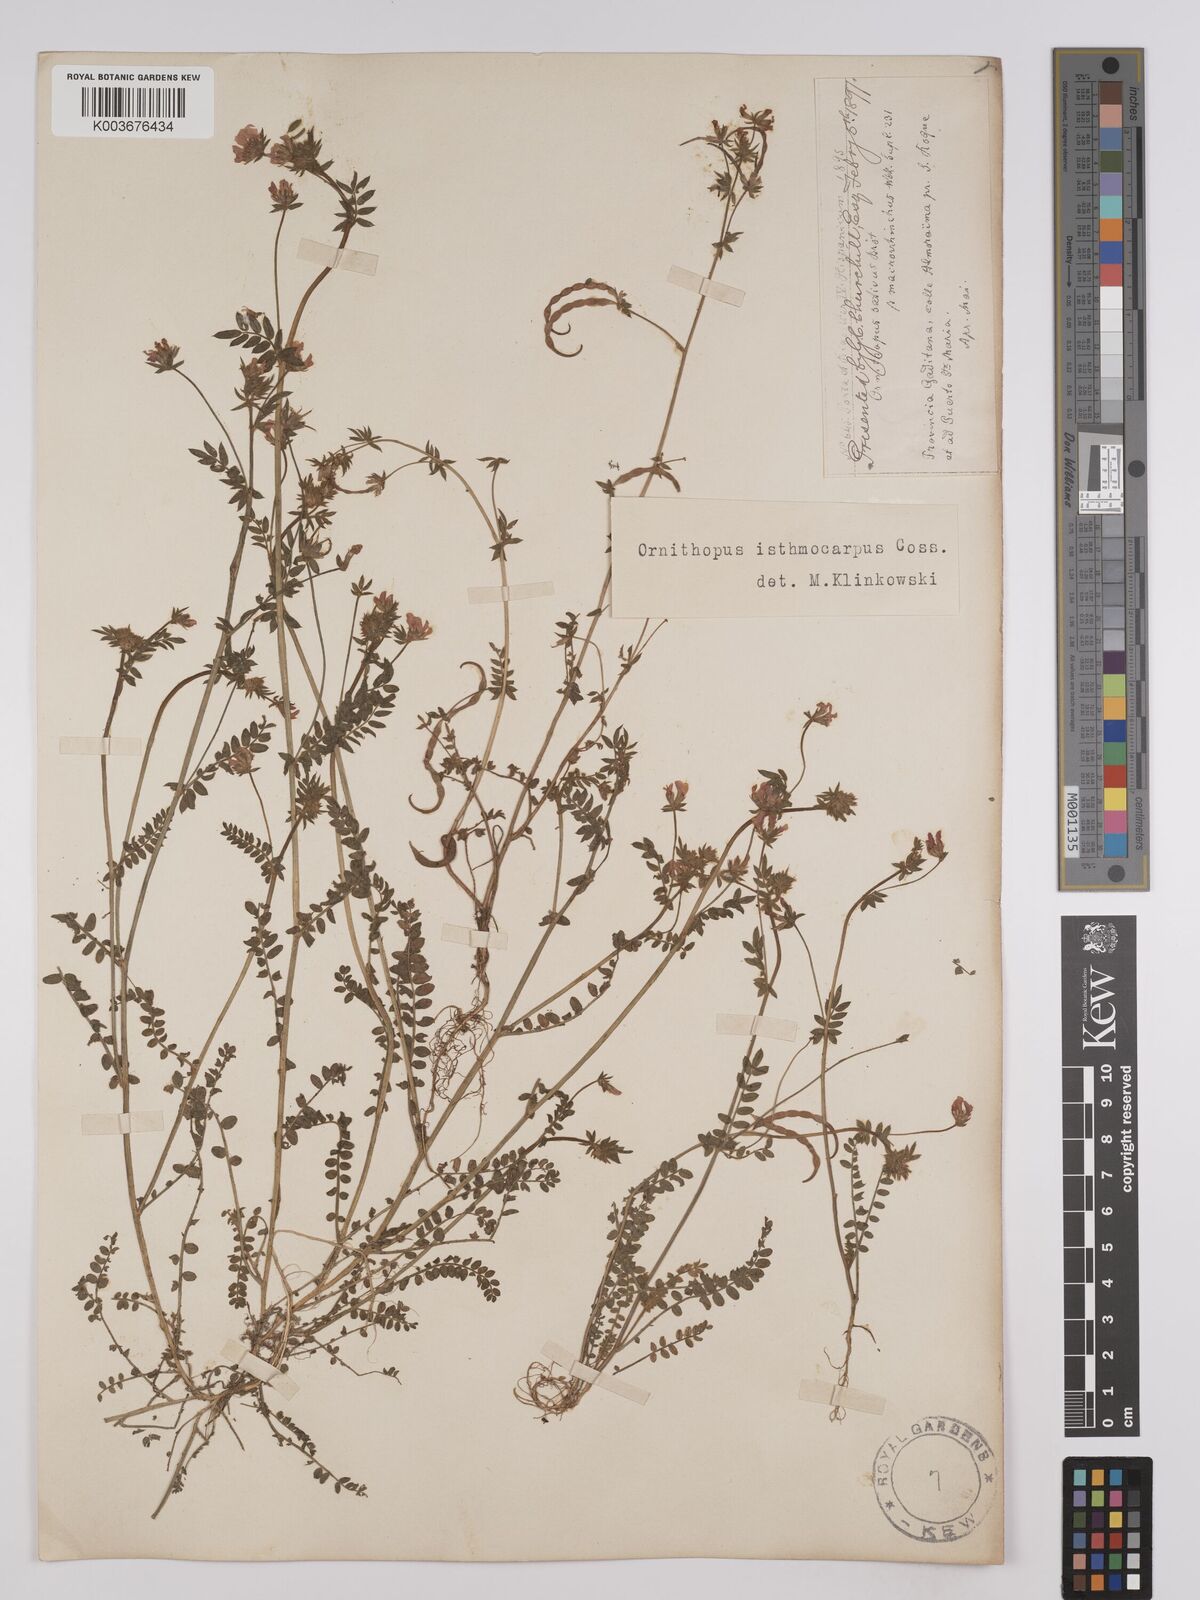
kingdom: Plantae
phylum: Tracheophyta
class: Magnoliopsida
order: Fabales
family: Fabaceae
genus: Ornithopus
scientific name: Ornithopus sativus
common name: Serradella
